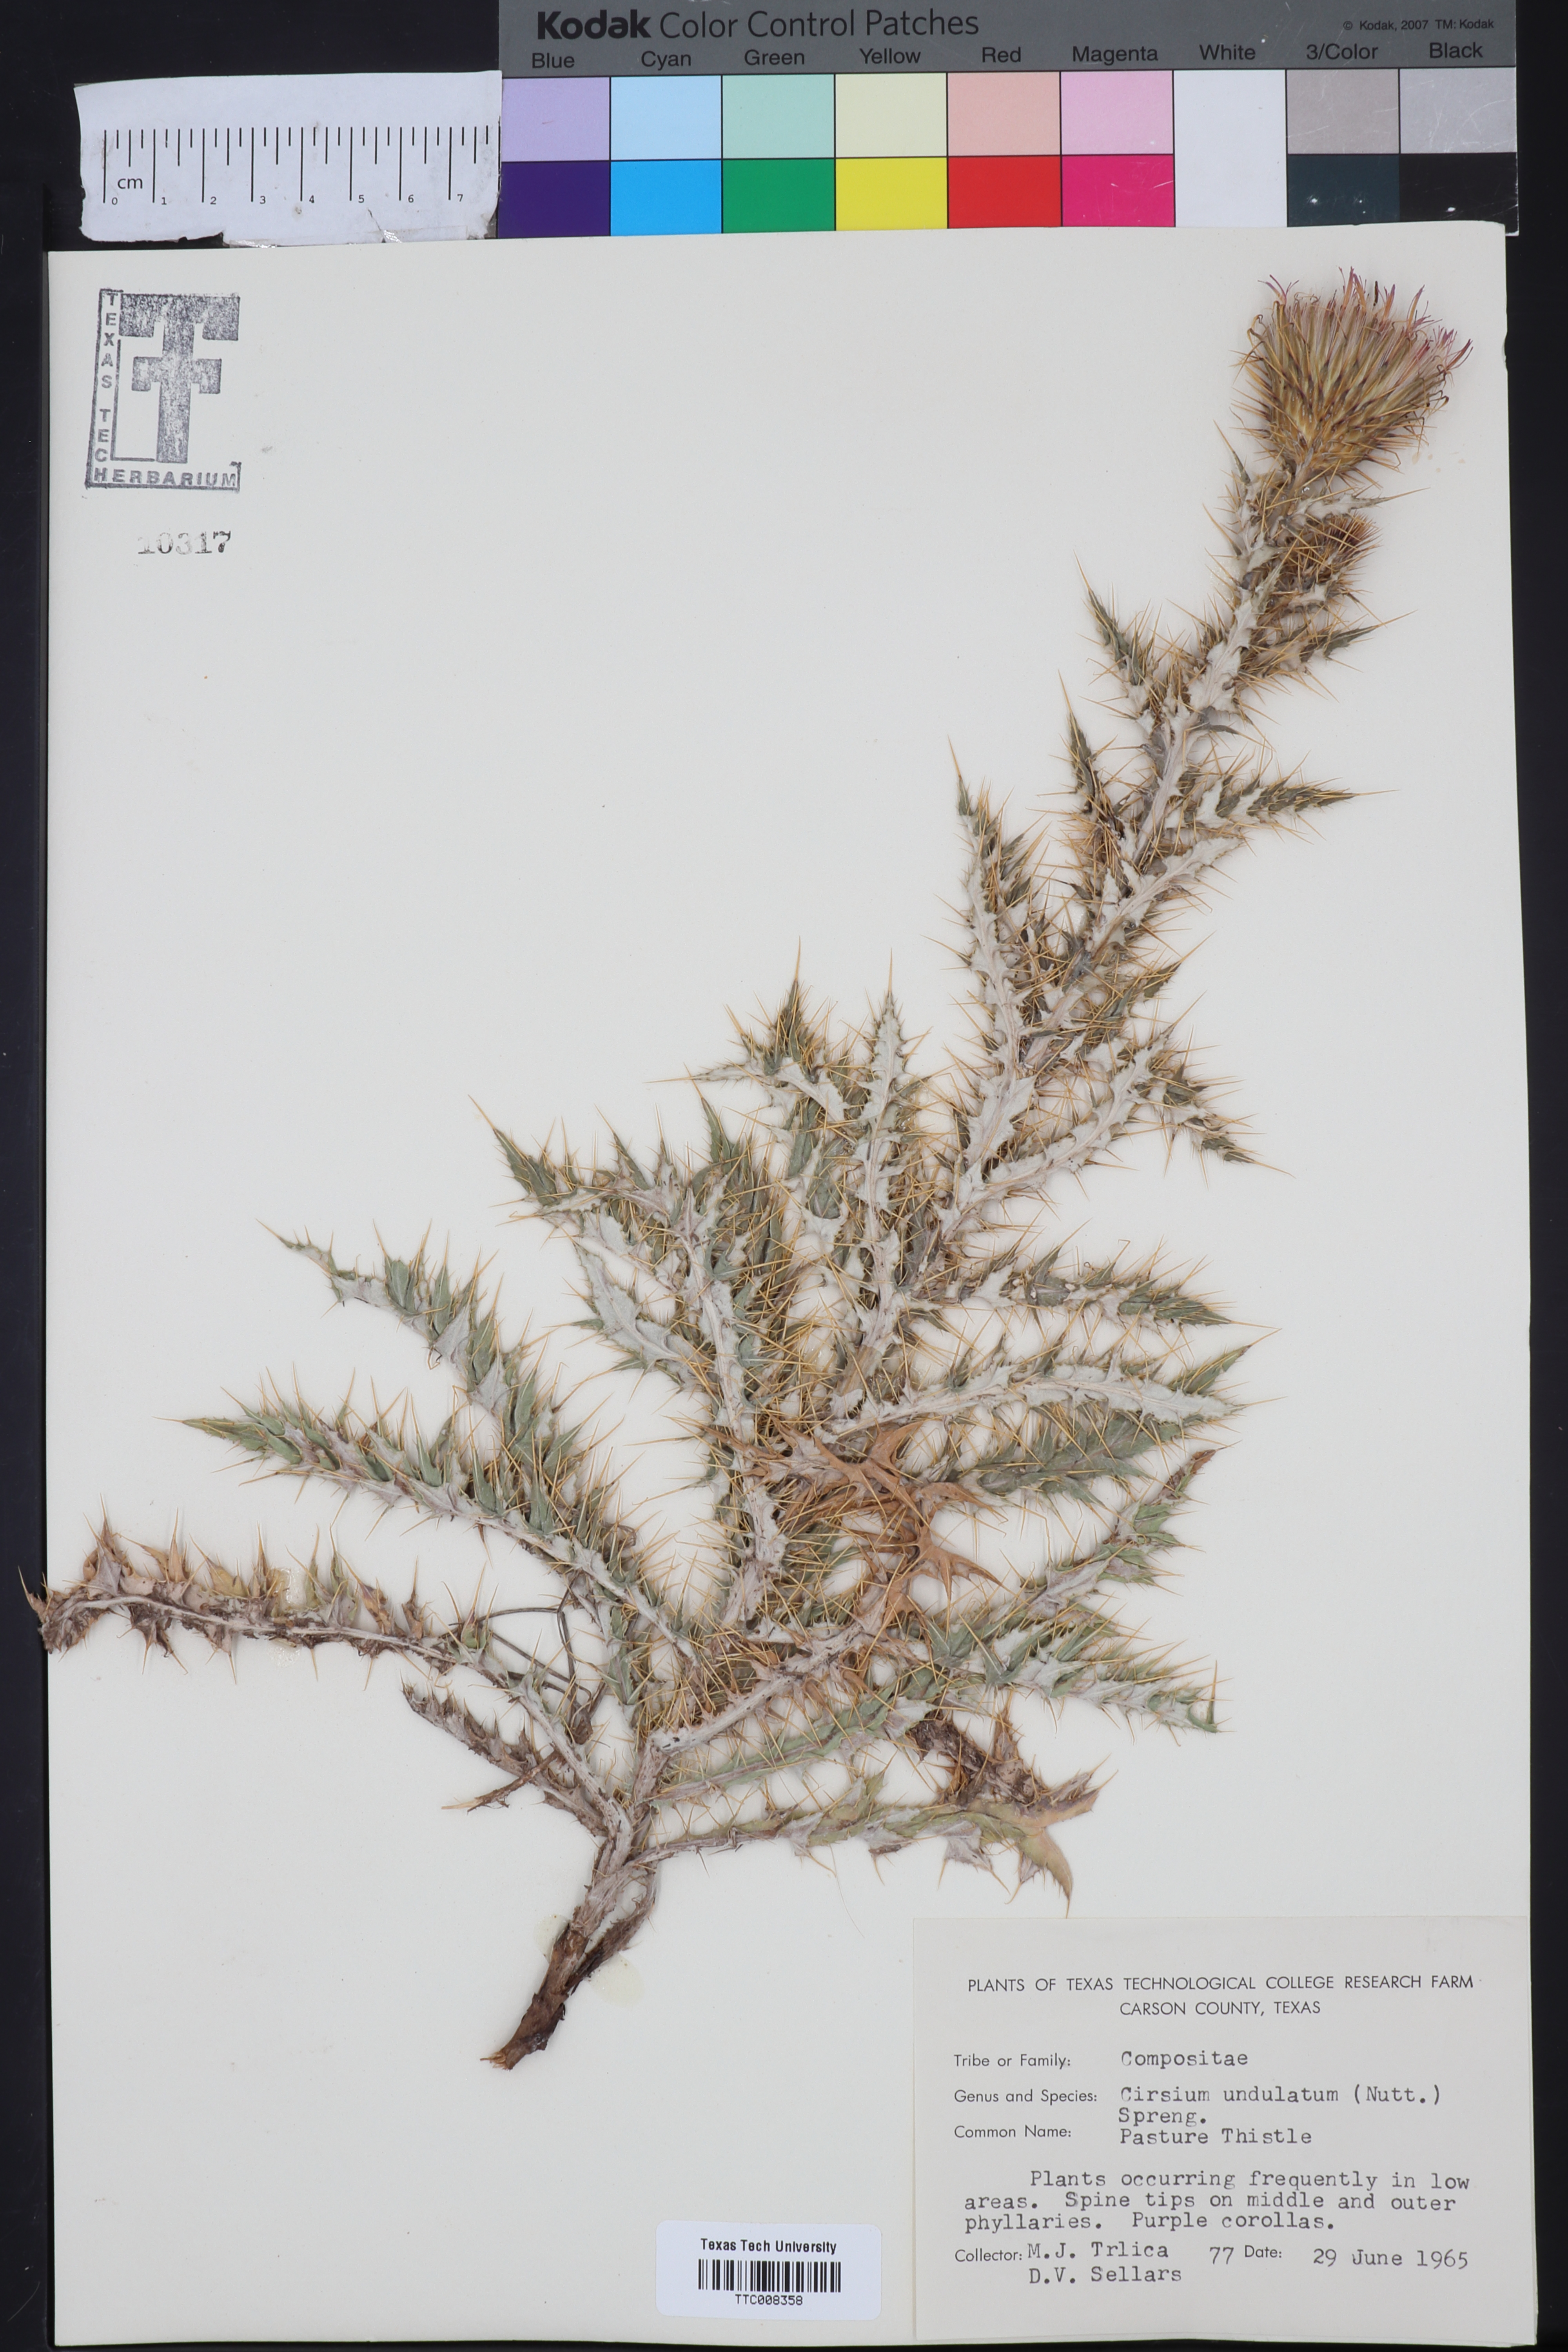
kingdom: Plantae
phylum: Tracheophyta
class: Magnoliopsida
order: Asterales
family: Asteraceae
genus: Cirsium
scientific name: Cirsium undulatum
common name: Pasture thistle
